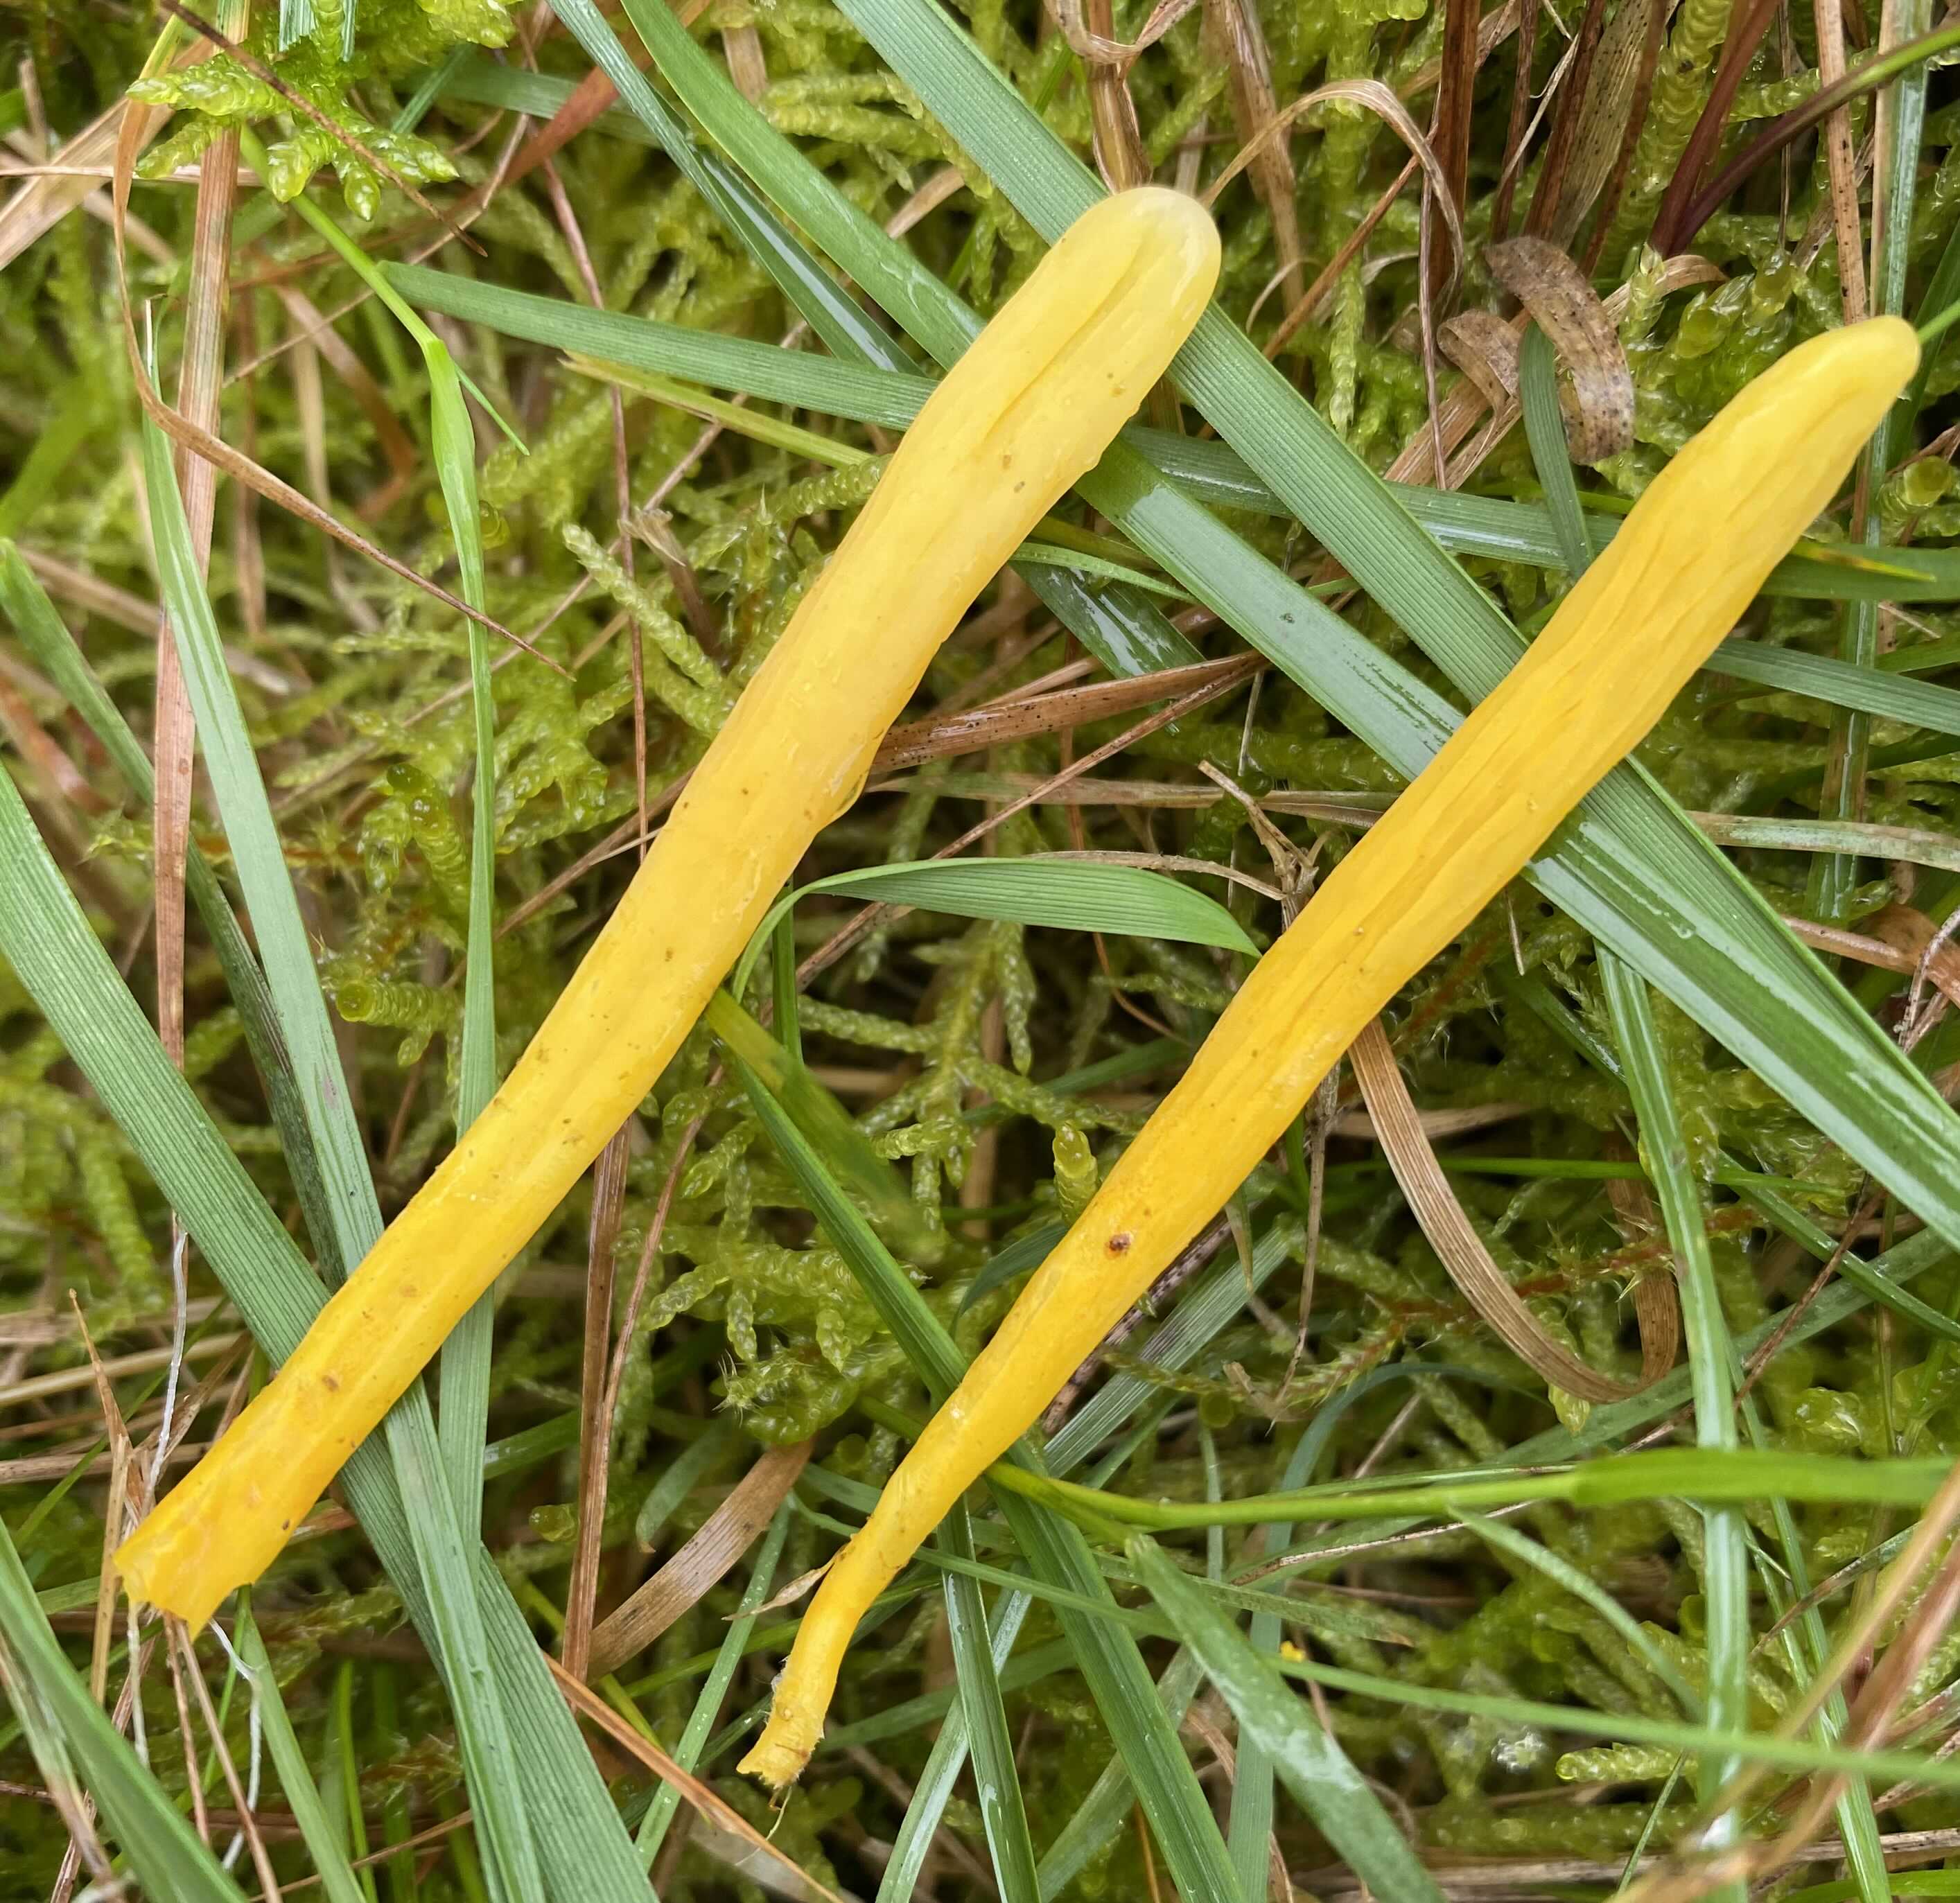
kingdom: Fungi
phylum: Basidiomycota
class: Agaricomycetes
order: Agaricales
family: Clavariaceae
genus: Clavulinopsis
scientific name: Clavulinopsis
